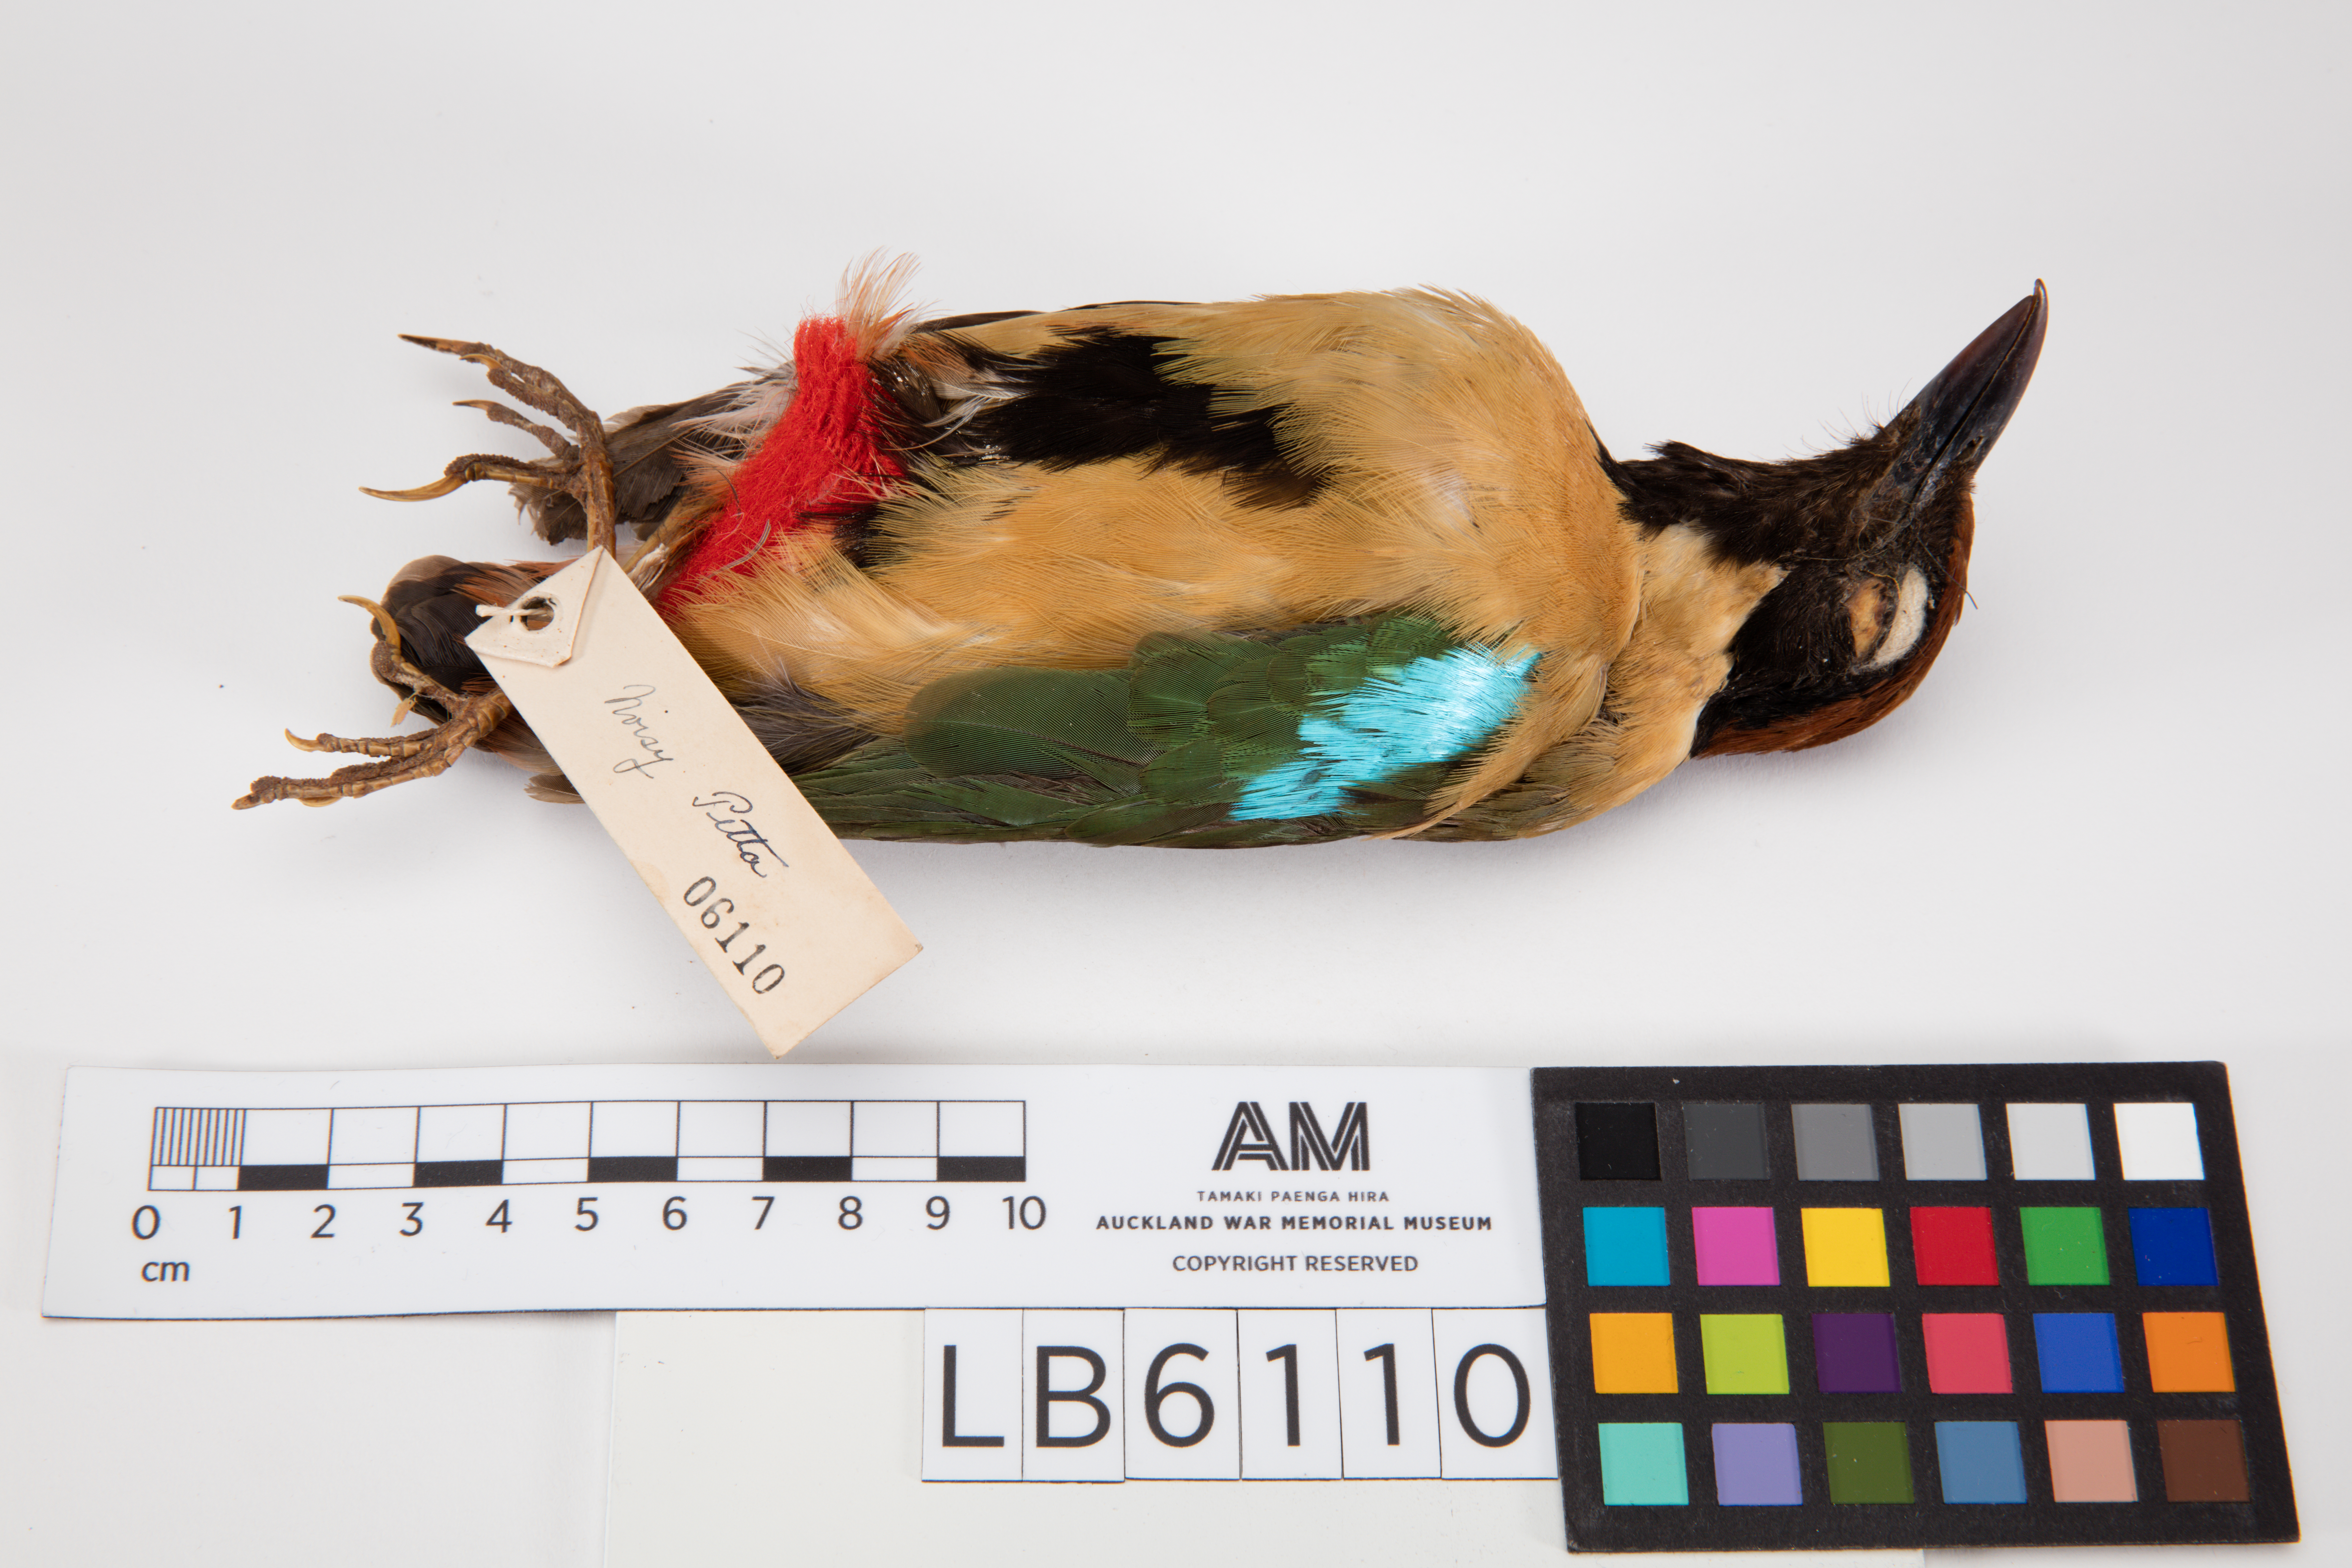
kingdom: Animalia
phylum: Chordata
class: Aves
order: Passeriformes
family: Pittidae
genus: Pitta
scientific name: Pitta versicolor
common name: Noisy pitta
